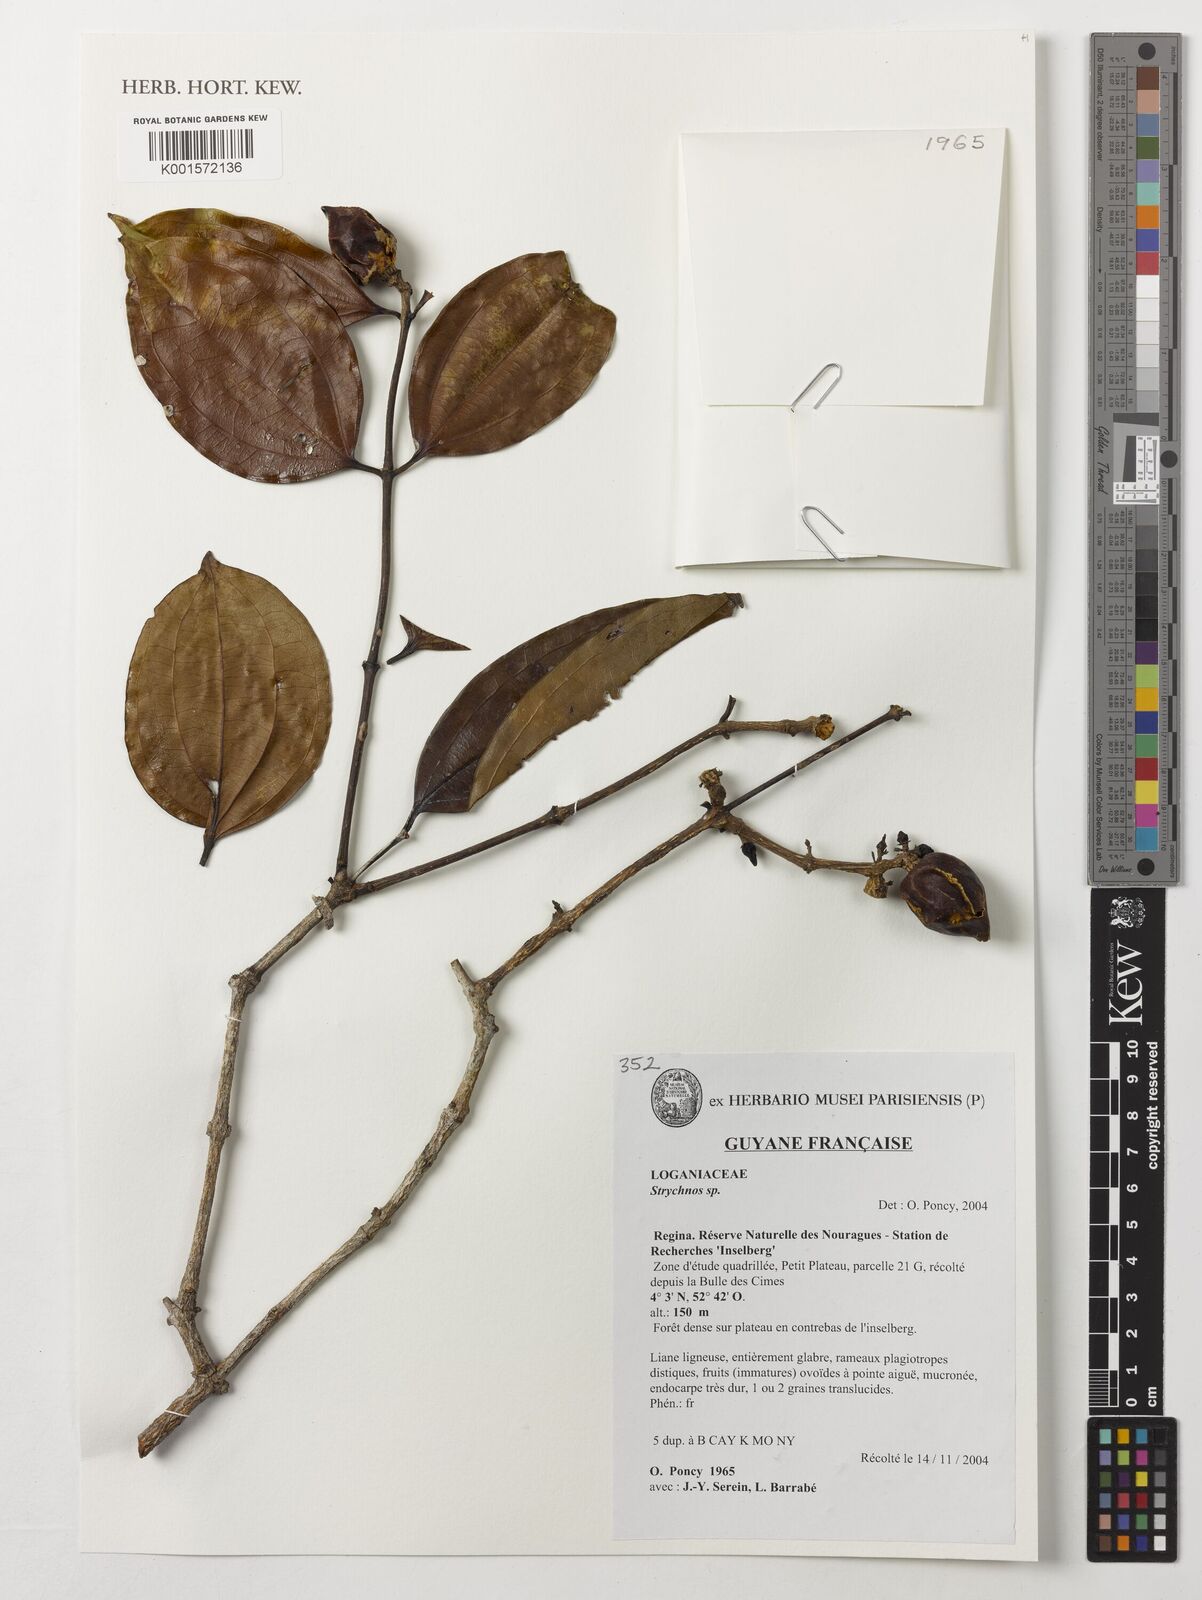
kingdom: Plantae
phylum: Tracheophyta
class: Magnoliopsida
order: Gentianales
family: Loganiaceae
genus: Strychnos
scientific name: Strychnos
